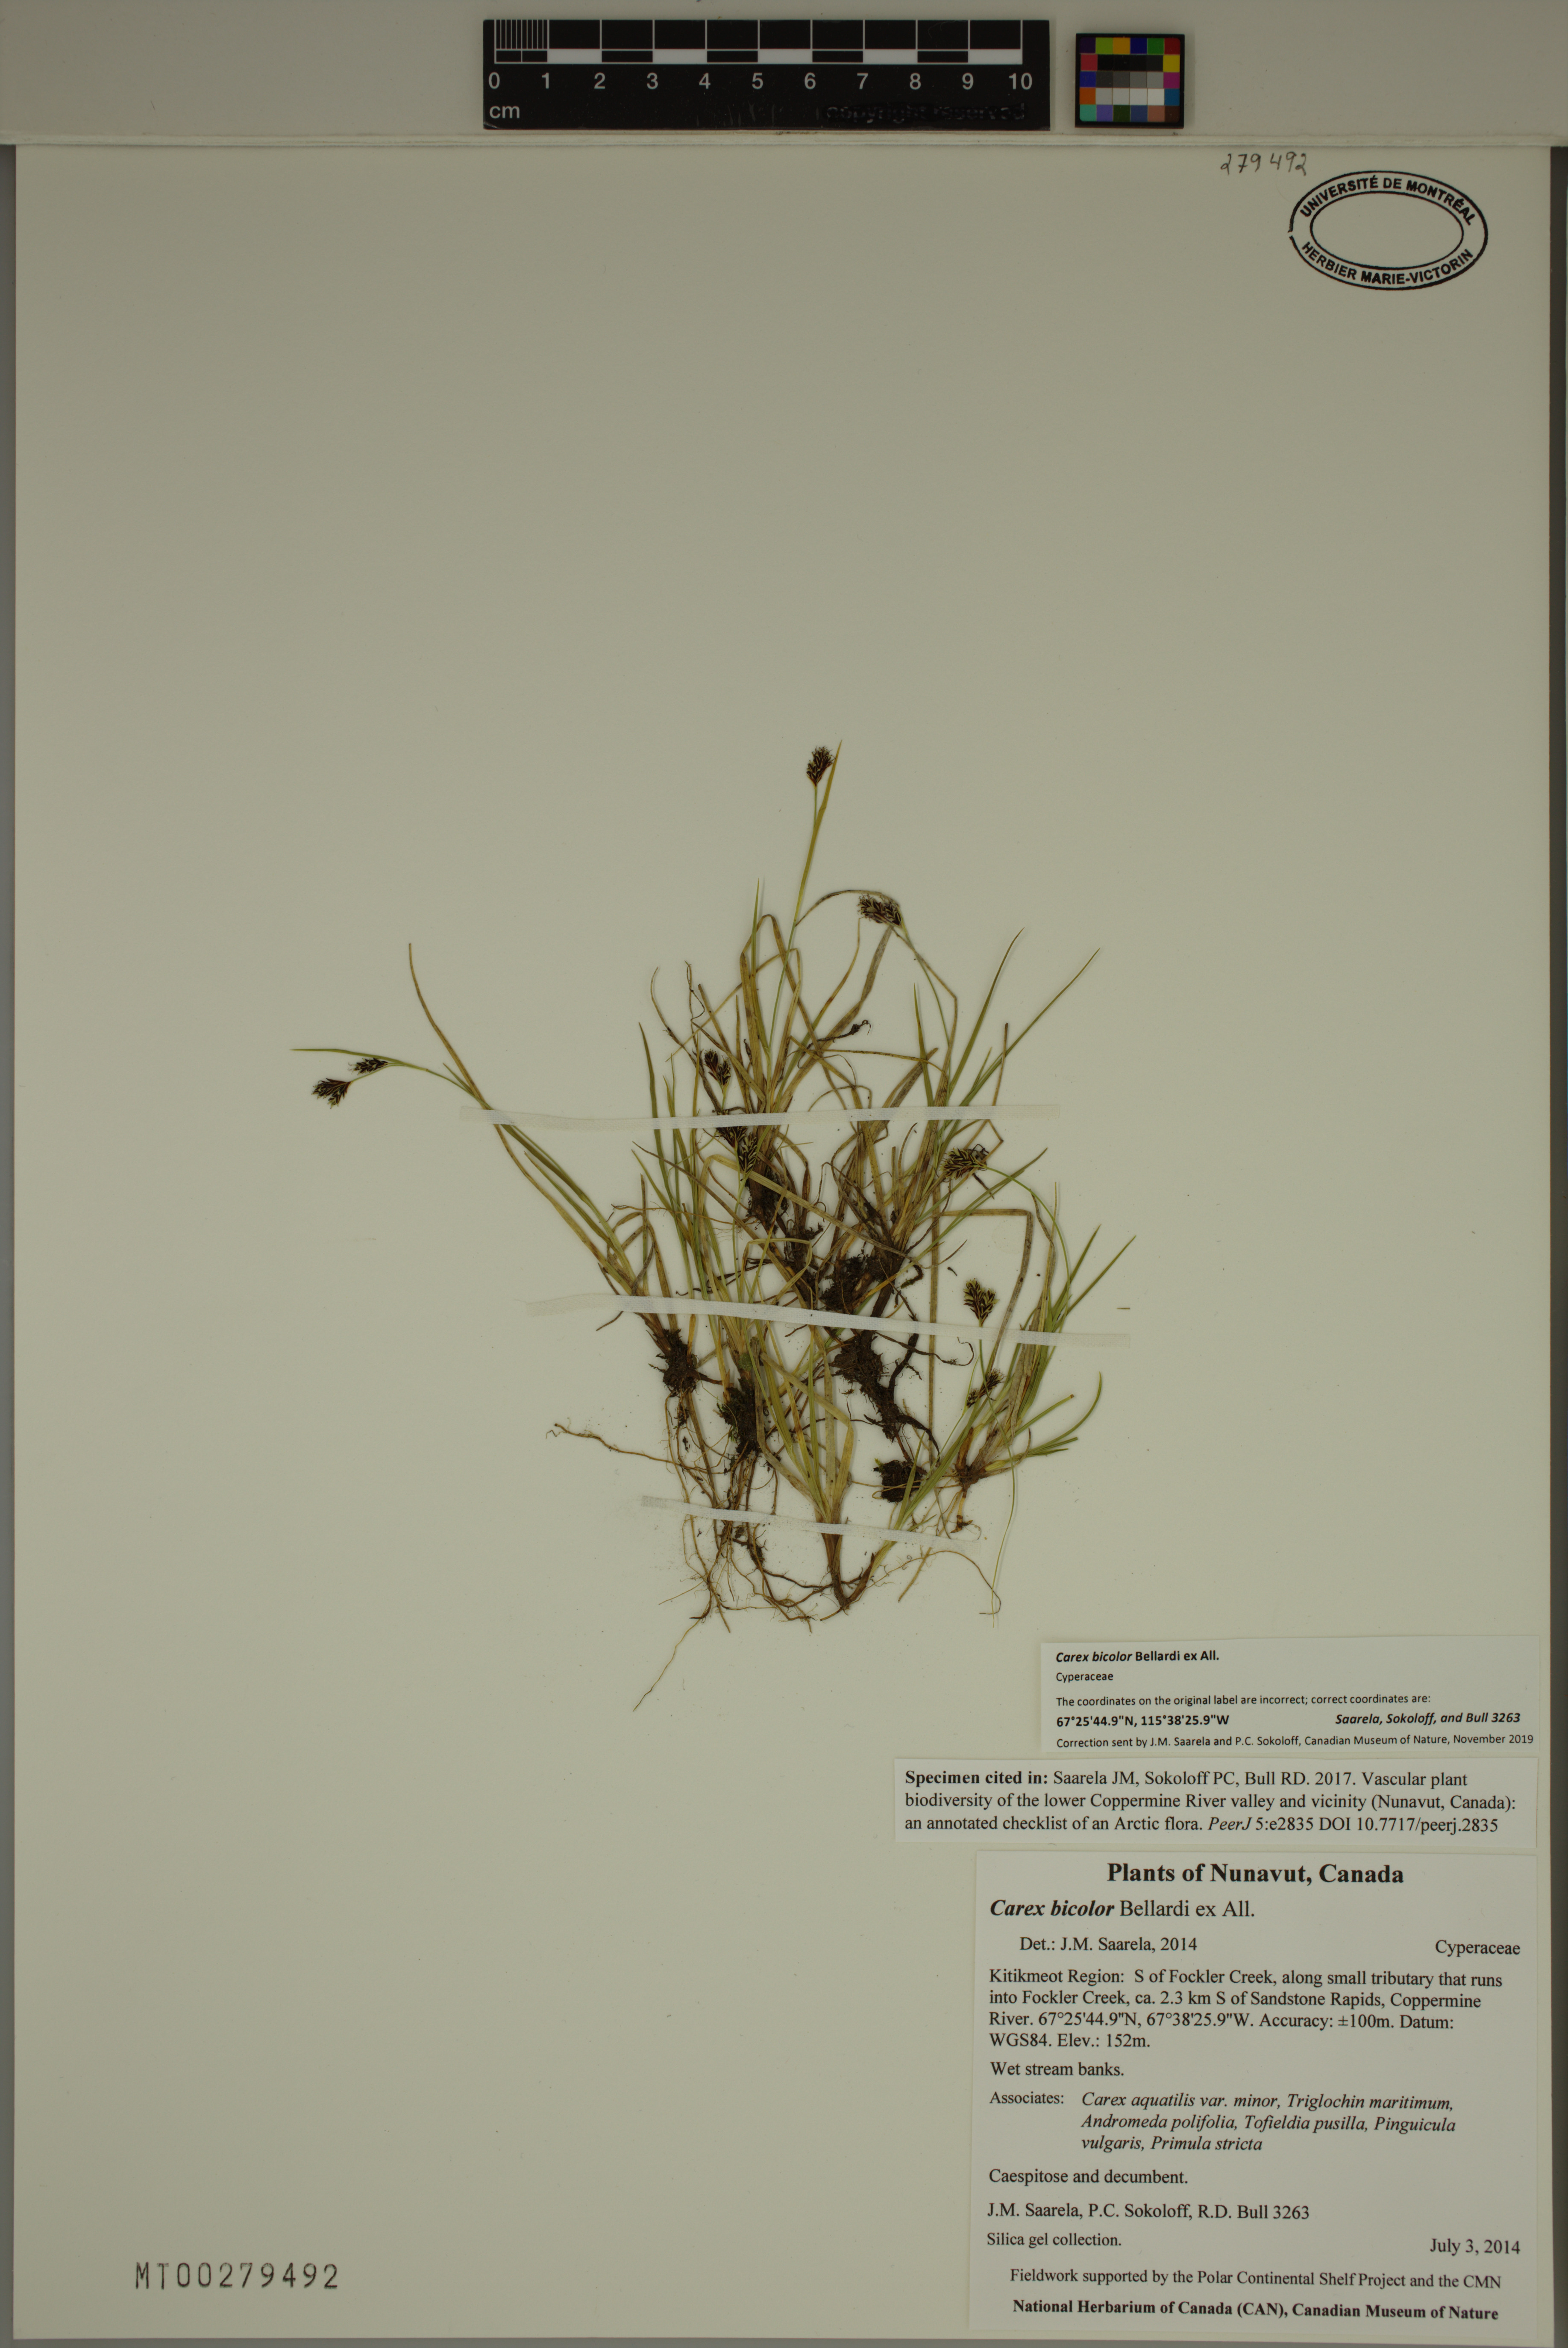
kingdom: Plantae
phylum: Tracheophyta
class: Liliopsida
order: Poales
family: Cyperaceae
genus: Carex
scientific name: Carex bicolor
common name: Bicoloured sedge
